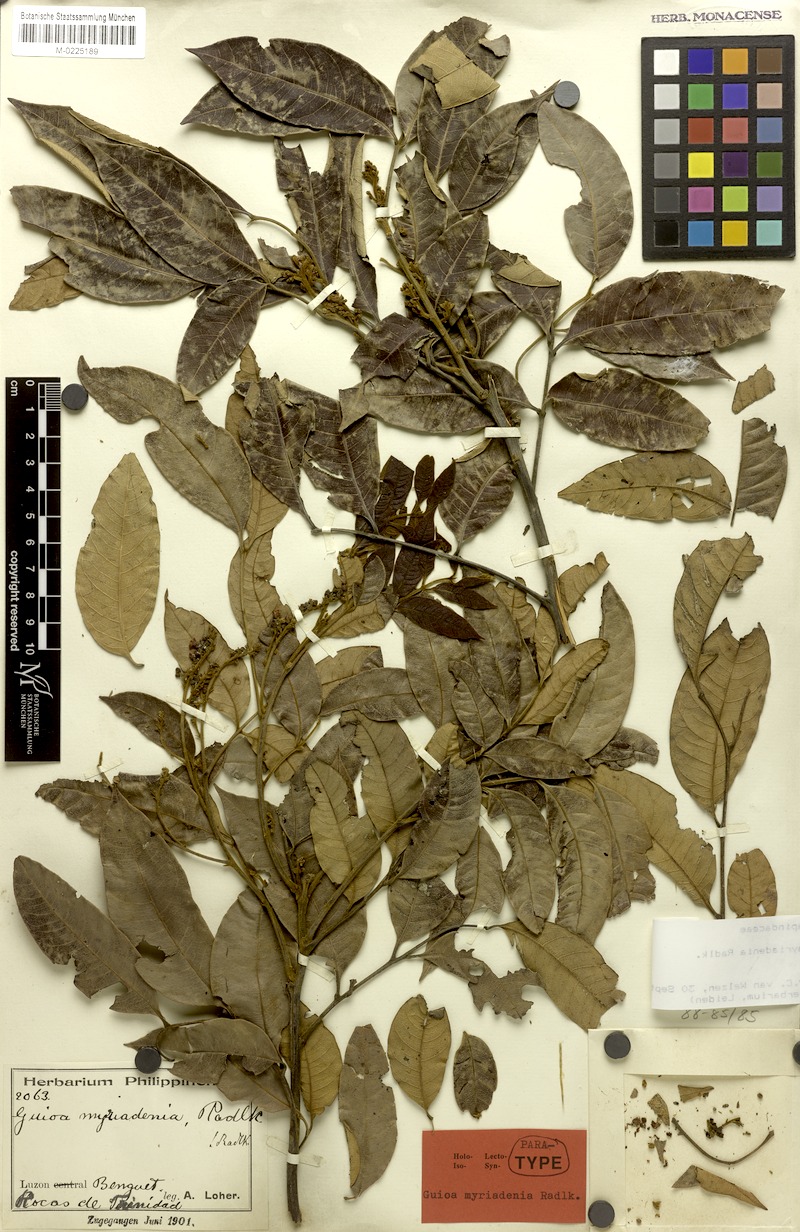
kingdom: Plantae
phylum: Tracheophyta
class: Magnoliopsida
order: Sapindales
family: Sapindaceae
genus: Guioa
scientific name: Guioa myriadenia
